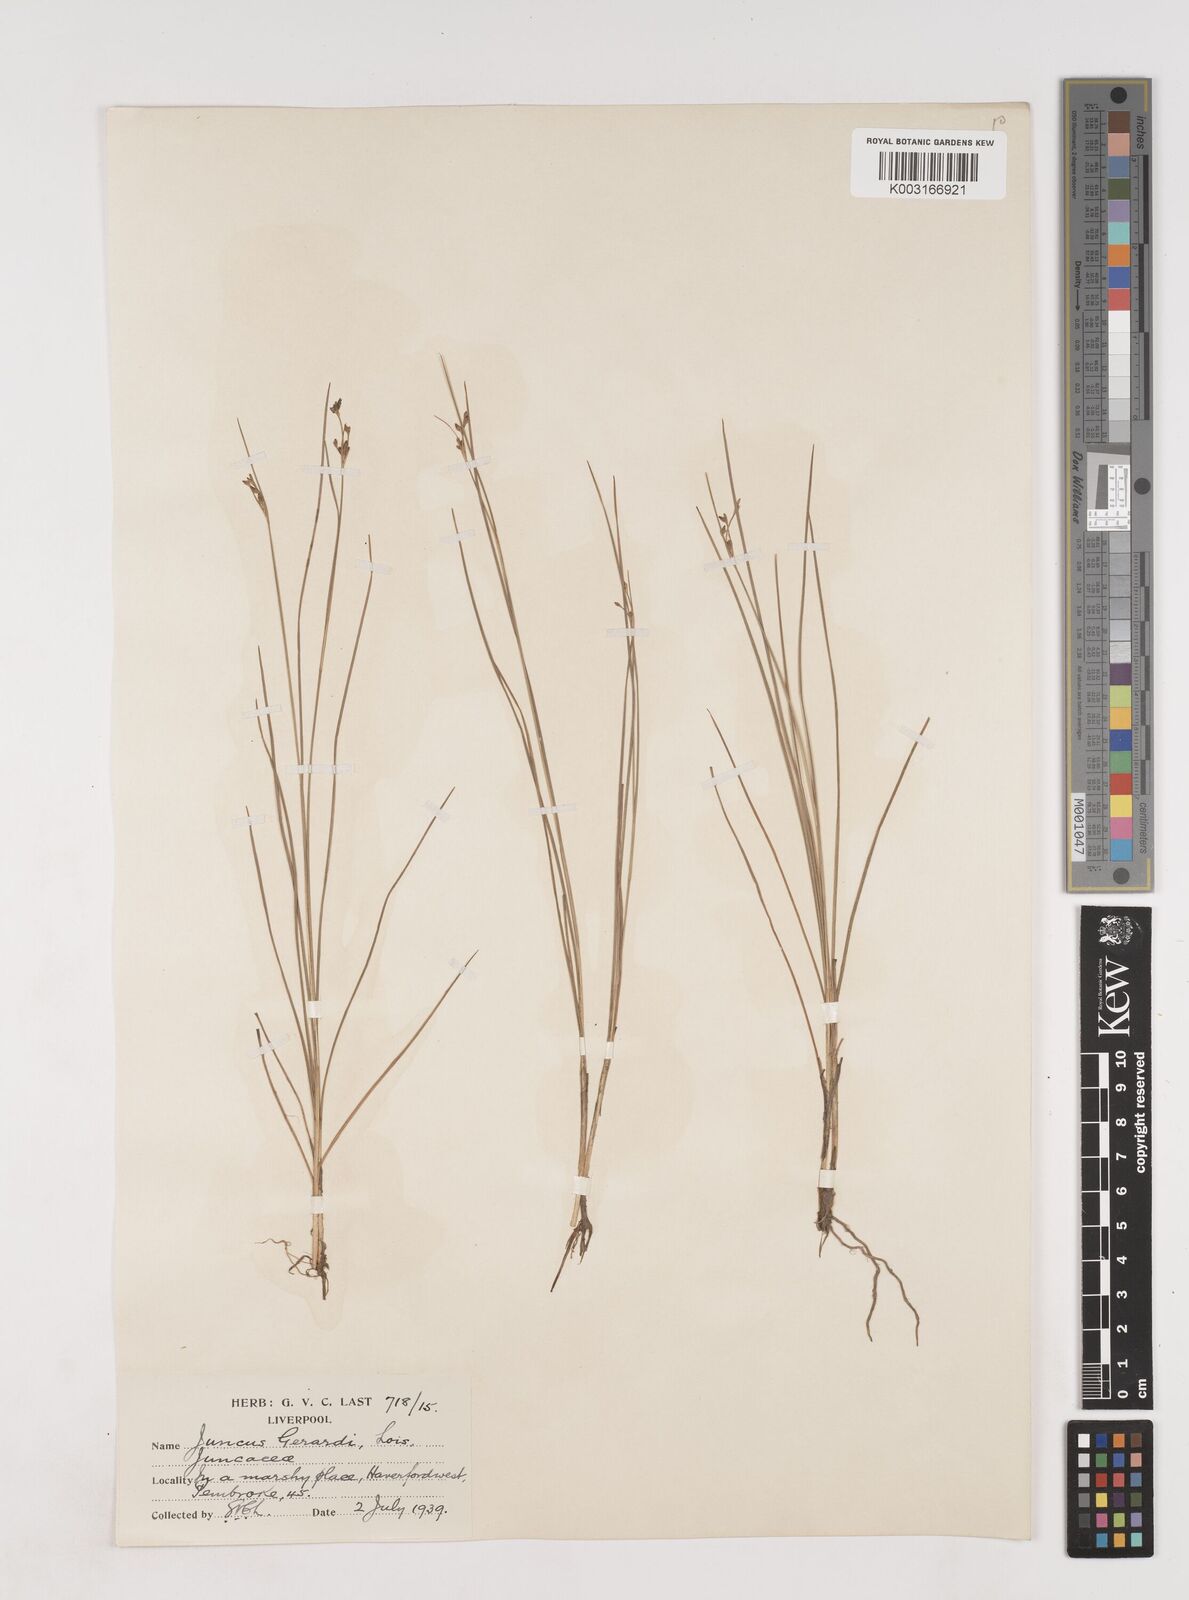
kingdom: Plantae
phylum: Tracheophyta
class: Liliopsida
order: Poales
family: Juncaceae
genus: Juncus
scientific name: Juncus gerardi
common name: Saltmarsh rush
